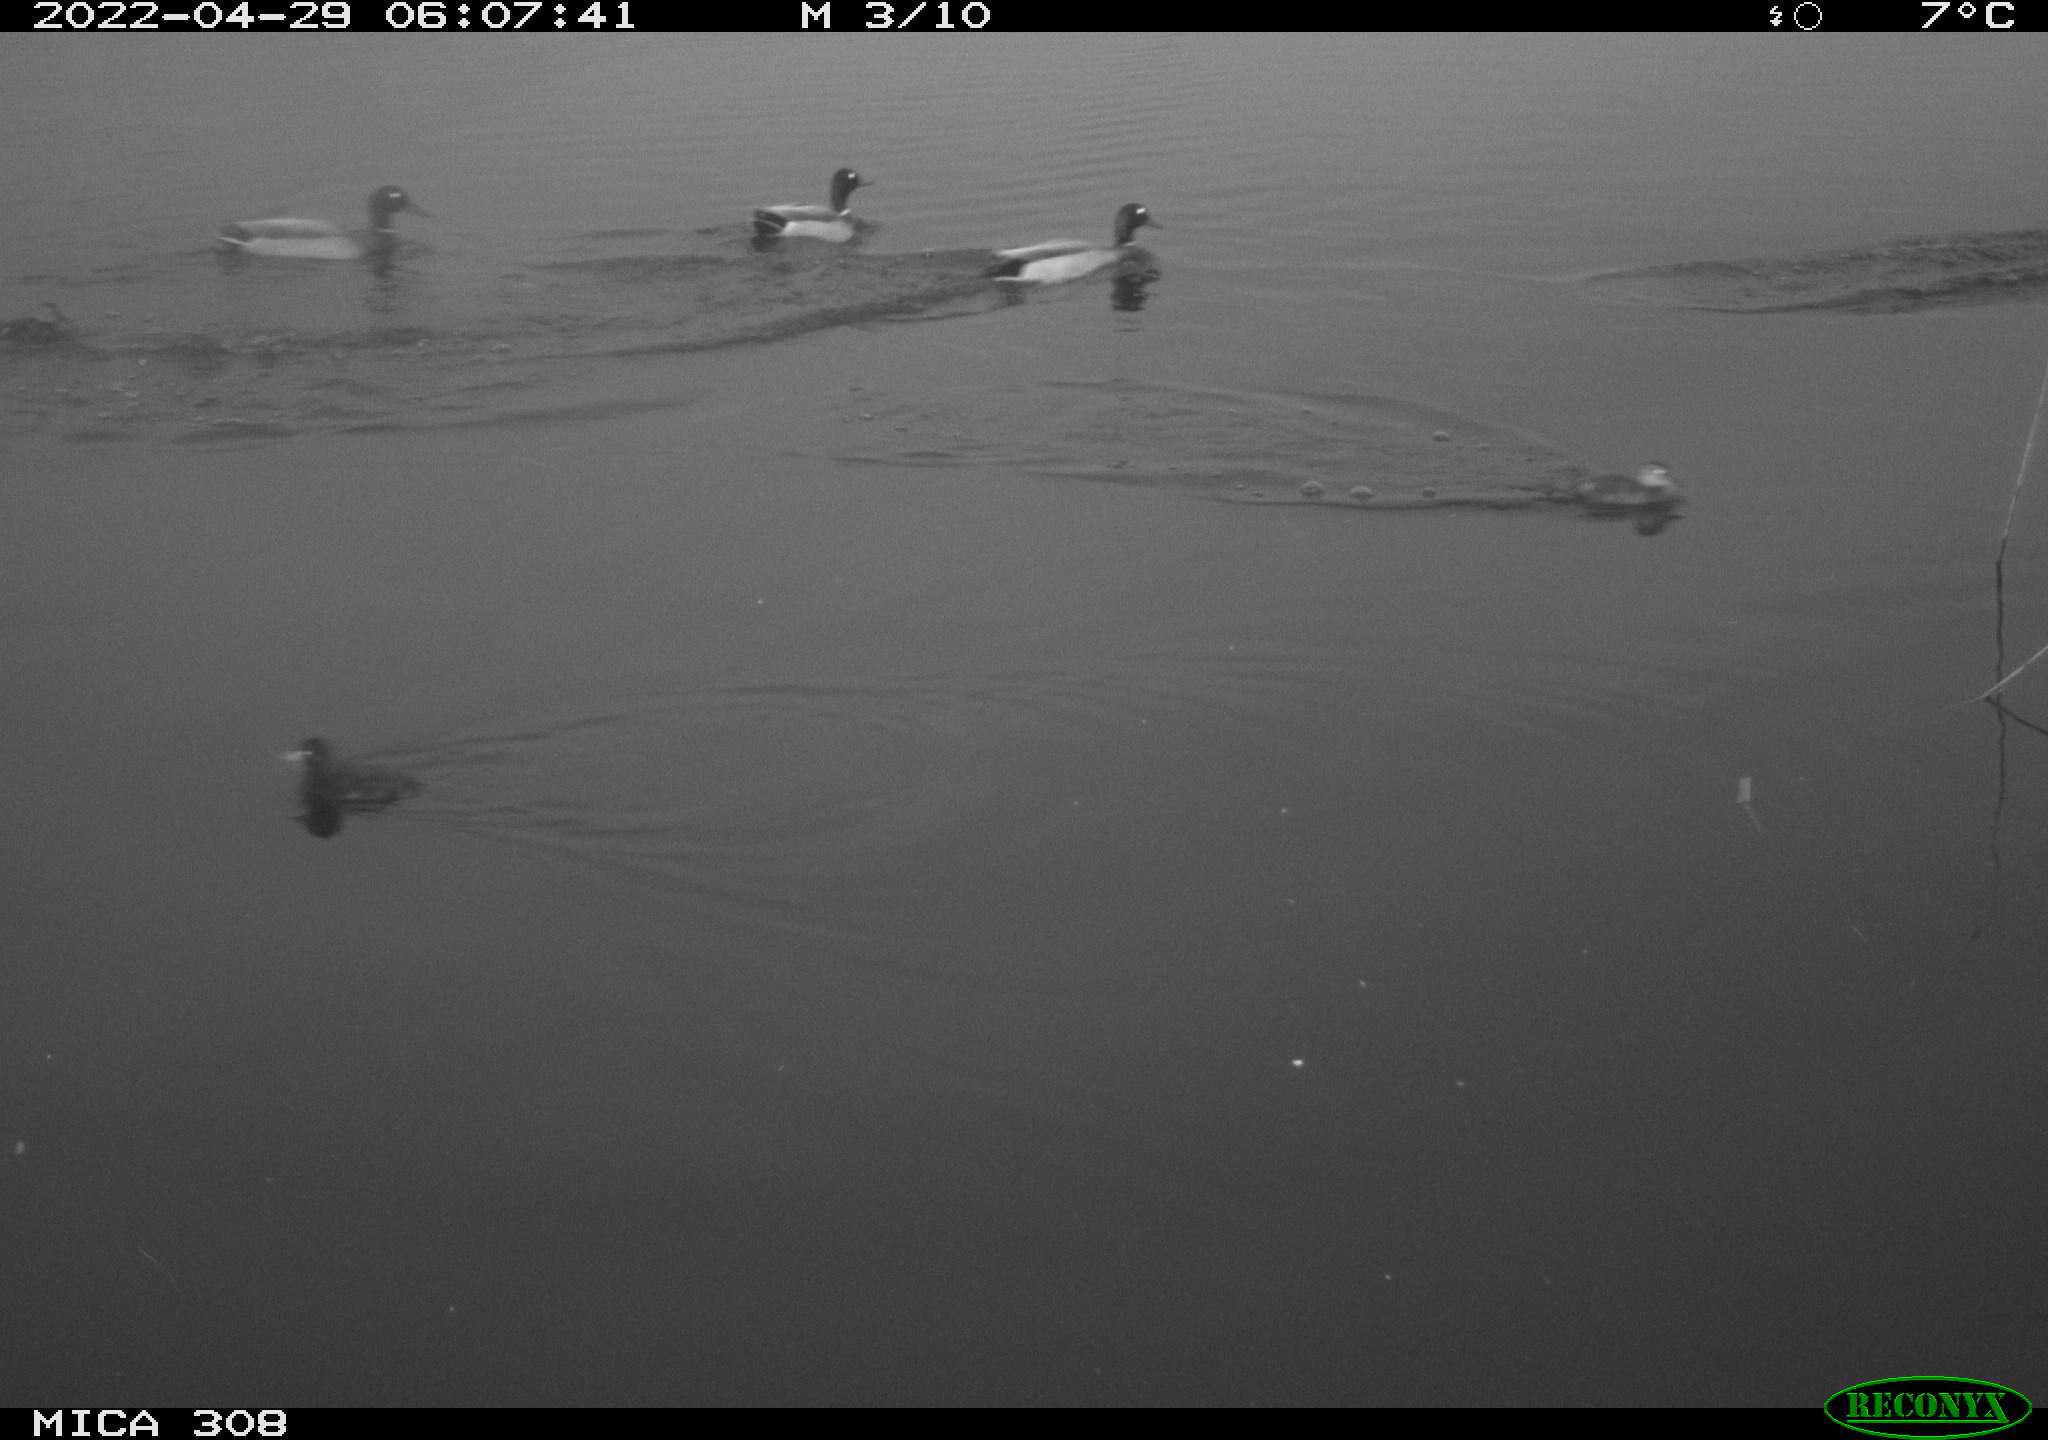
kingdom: Animalia
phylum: Chordata
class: Aves
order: Anseriformes
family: Anatidae
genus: Anas
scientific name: Anas platyrhynchos
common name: Mallard
